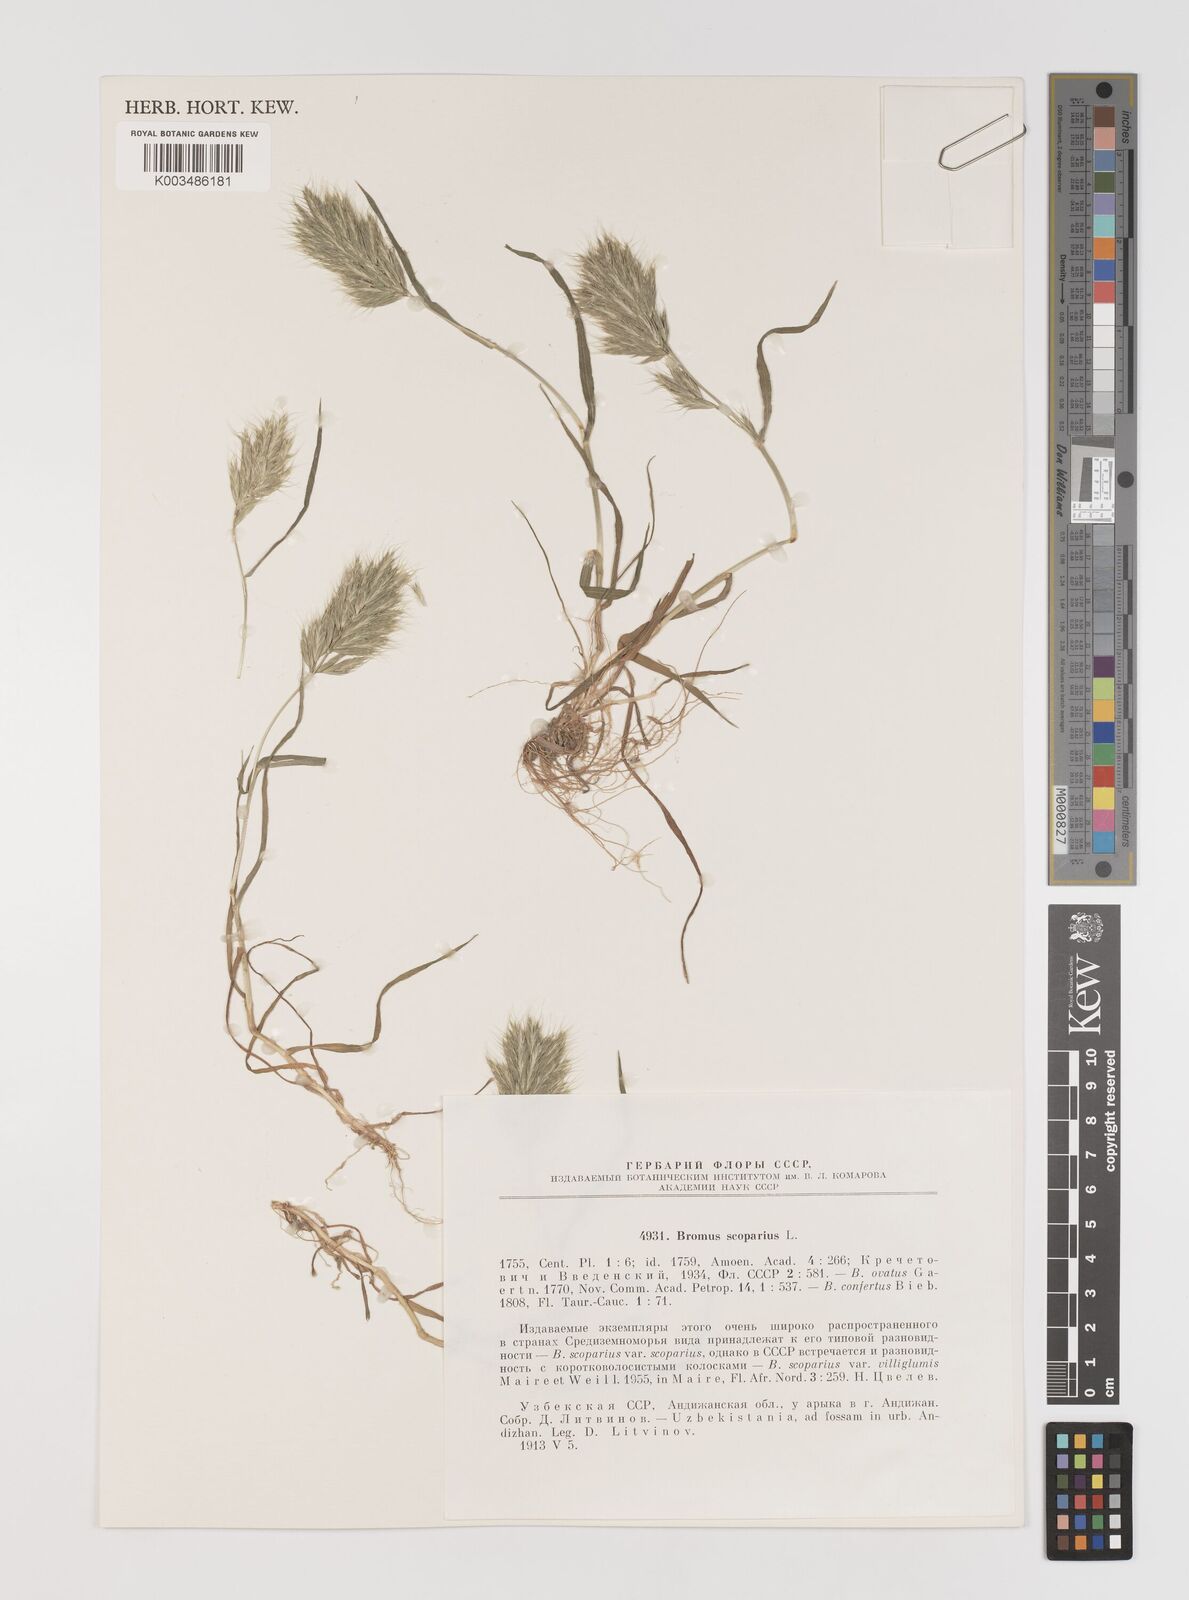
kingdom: Plantae
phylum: Tracheophyta
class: Liliopsida
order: Poales
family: Poaceae
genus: Bromus
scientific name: Bromus scoparius
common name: Broom brome
